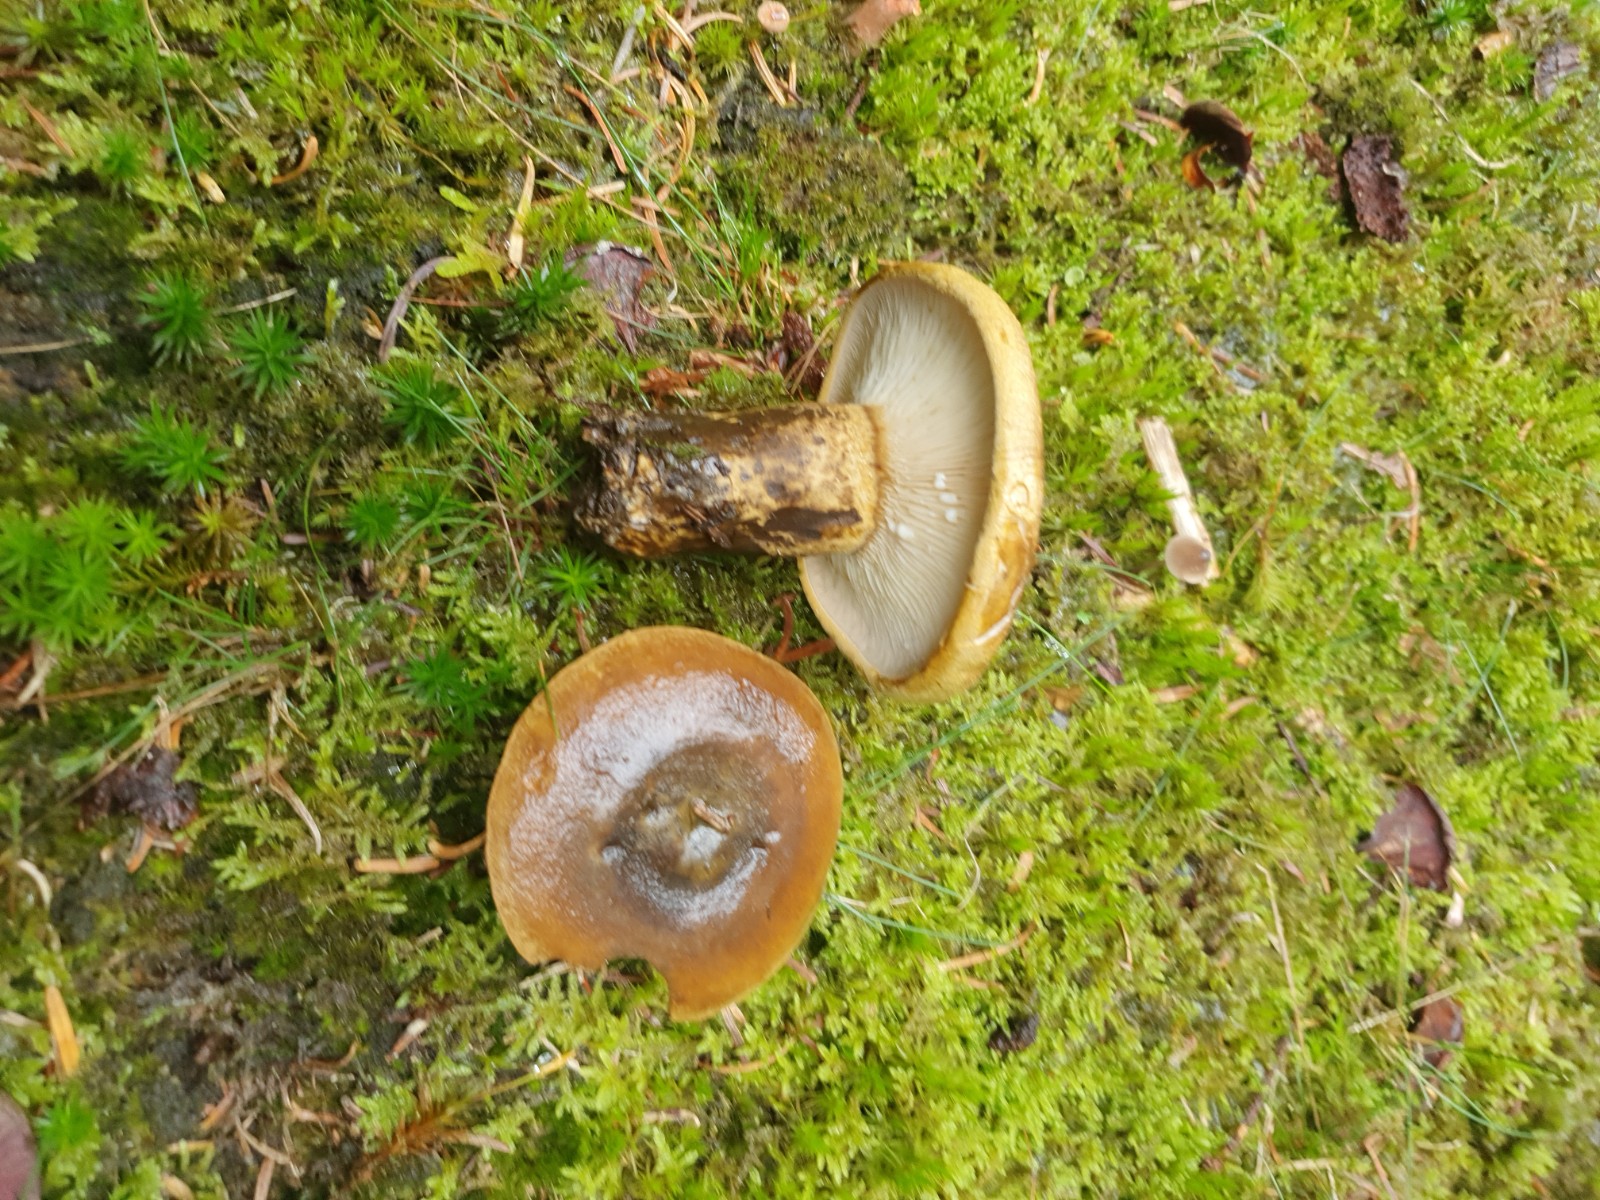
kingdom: Fungi
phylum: Basidiomycota
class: Agaricomycetes
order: Russulales
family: Russulaceae
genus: Lactarius
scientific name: Lactarius necator
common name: manddraber-mælkehat
